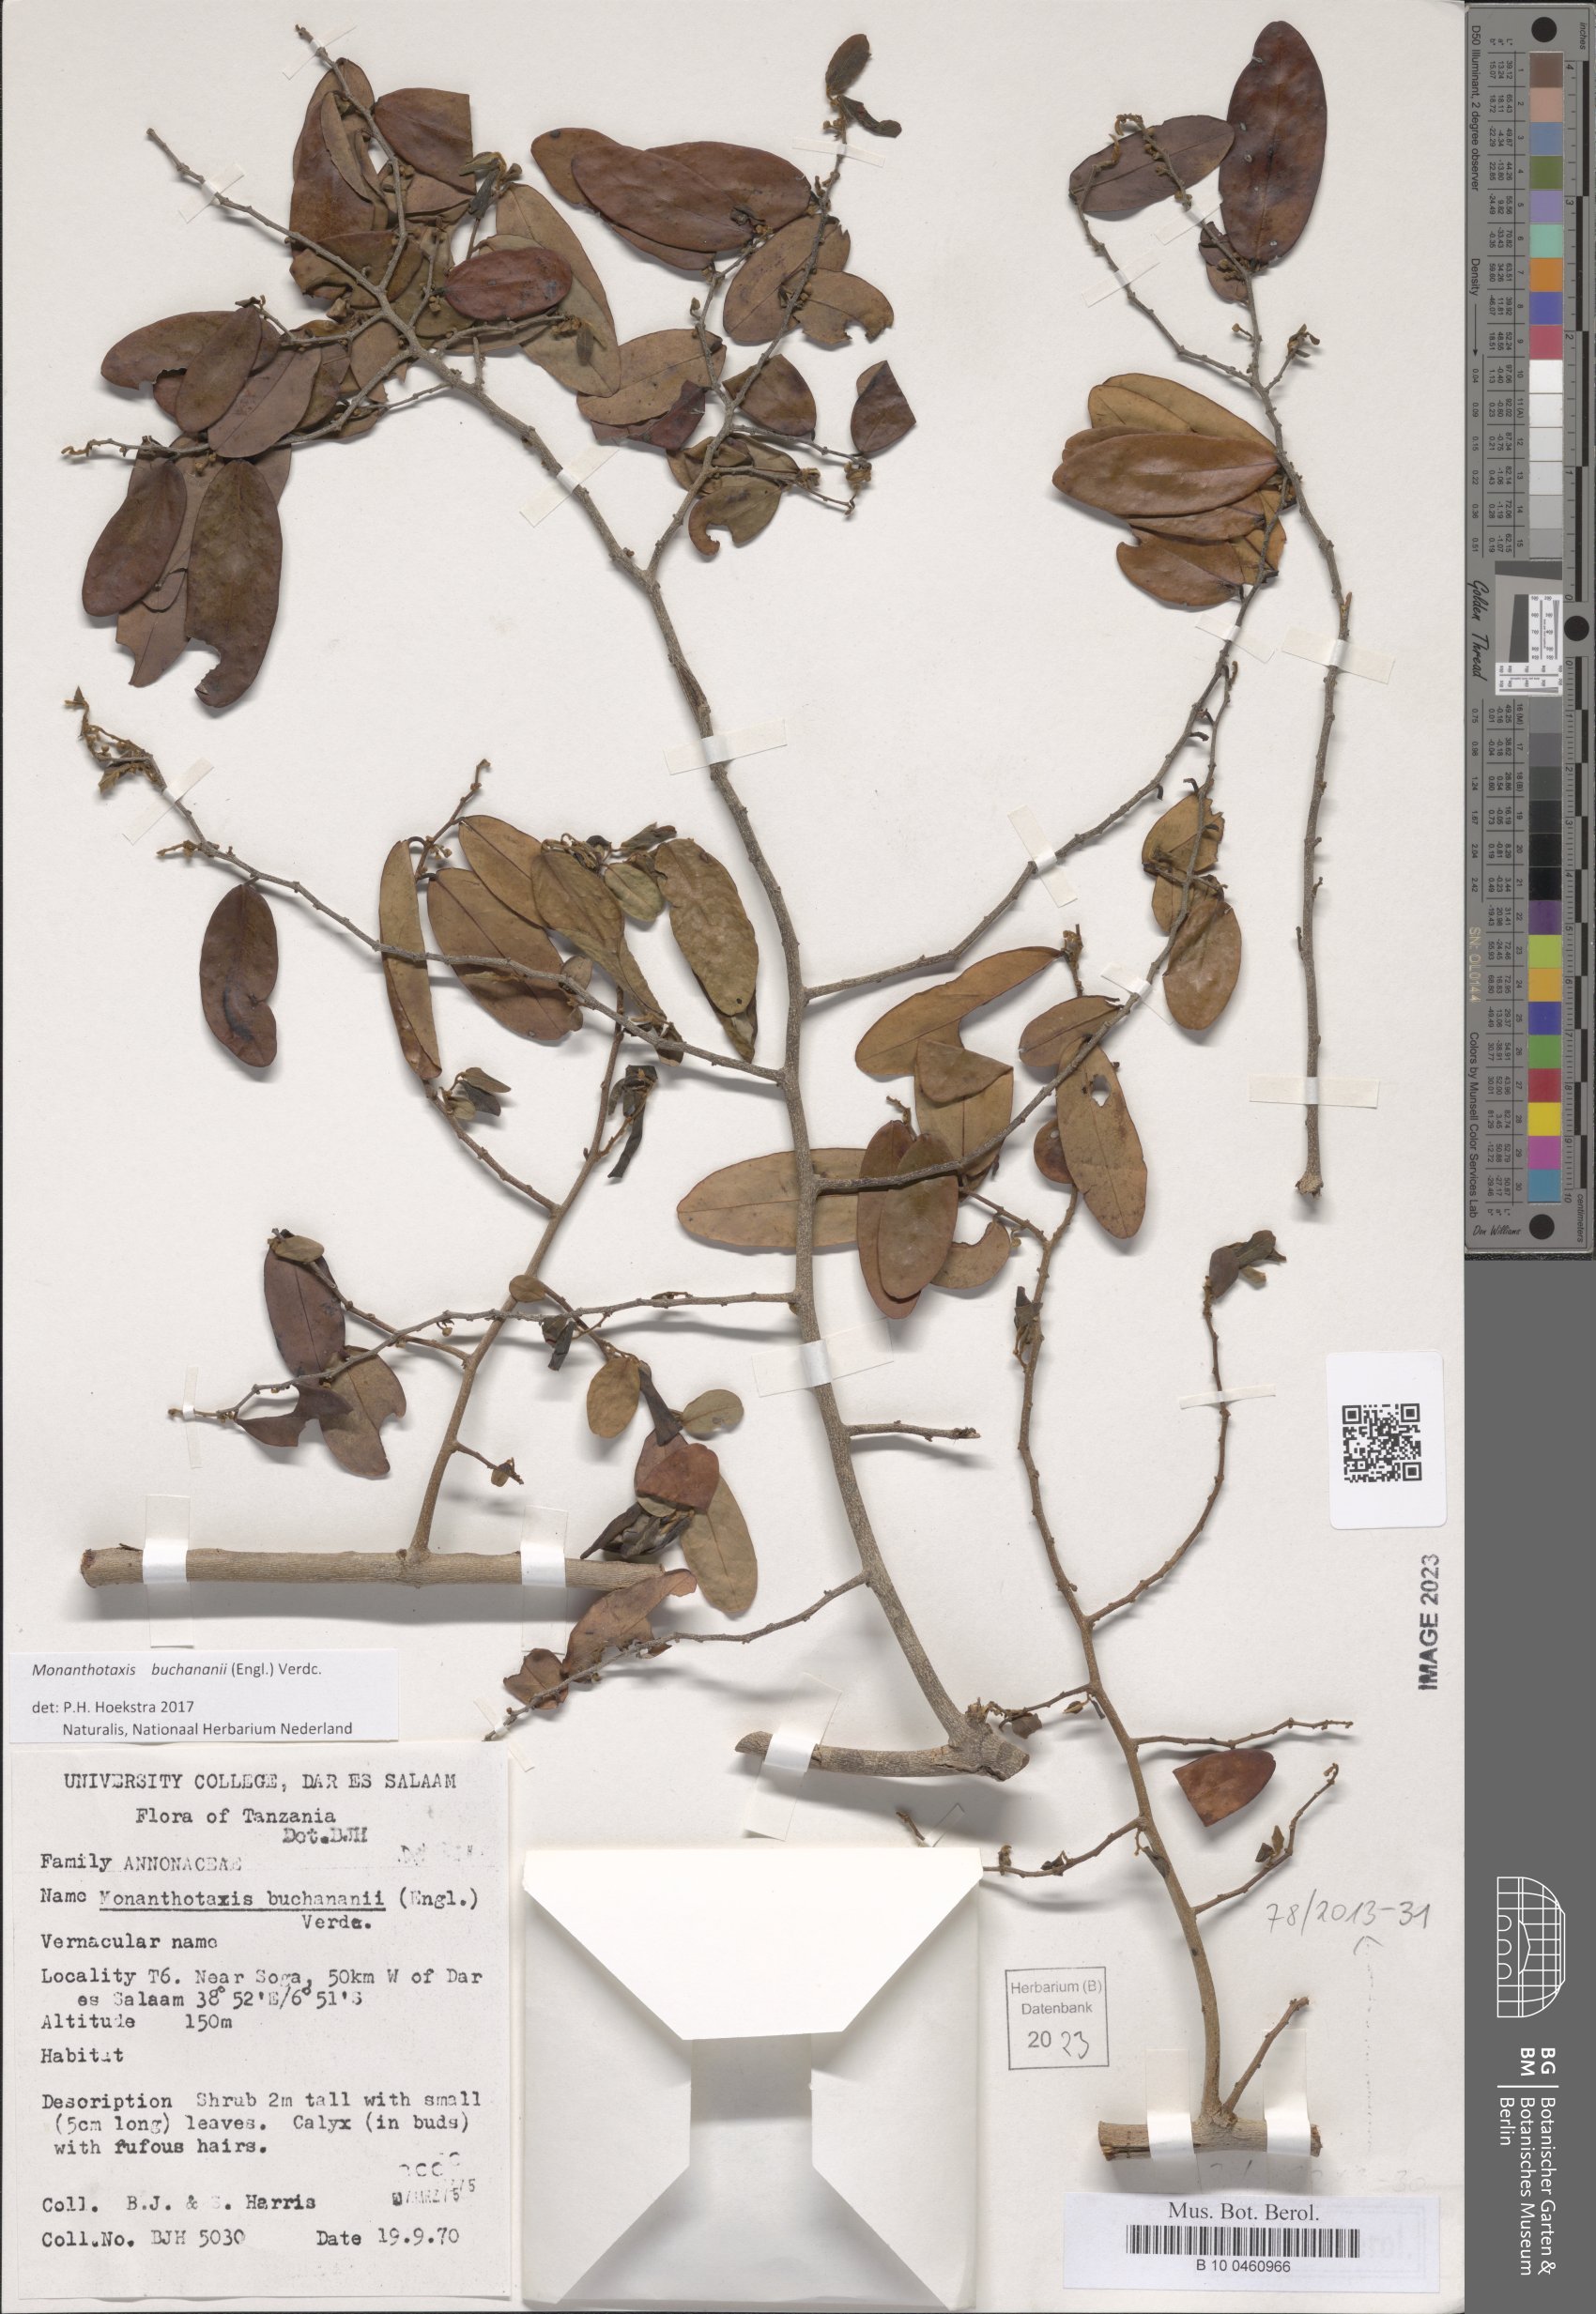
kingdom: Plantae
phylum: Tracheophyta
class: Magnoliopsida
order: Magnoliales
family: Annonaceae
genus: Monanthotaxis
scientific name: Monanthotaxis buchananii
